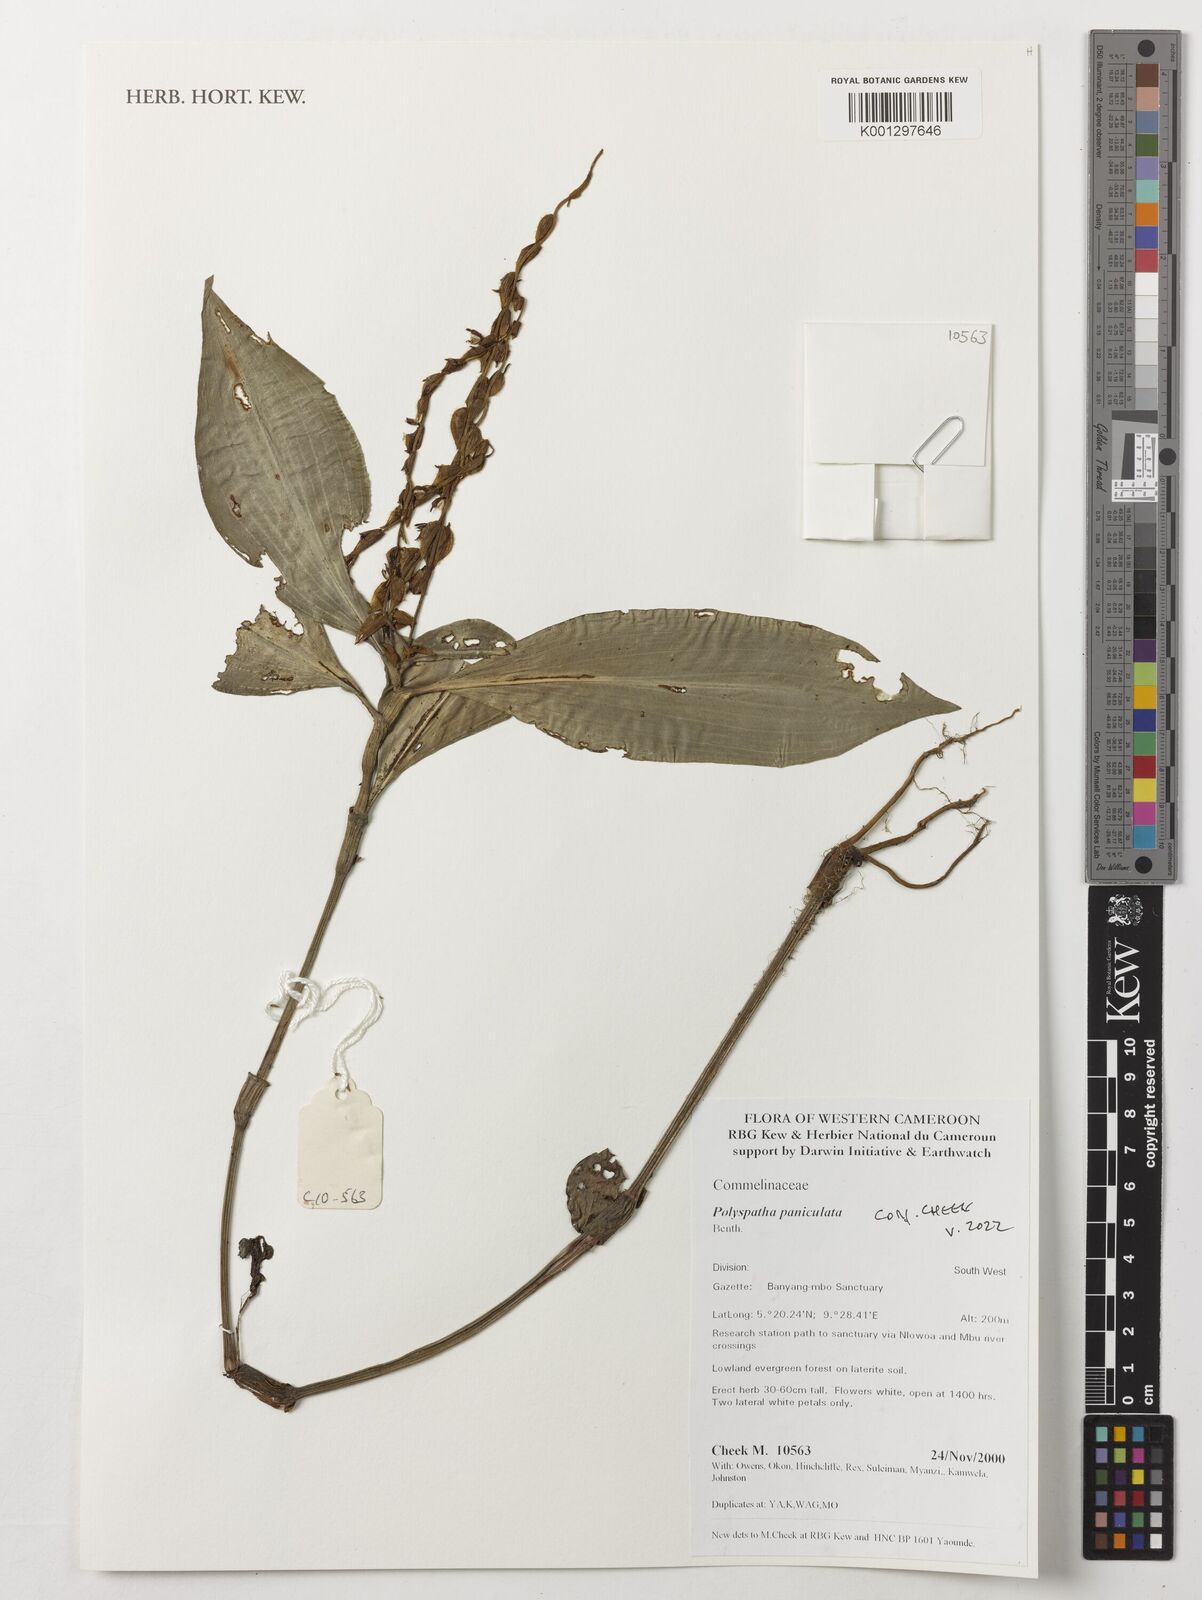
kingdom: Plantae
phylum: Tracheophyta
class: Liliopsida
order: Commelinales
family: Commelinaceae
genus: Polyspatha
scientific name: Polyspatha paniculata
